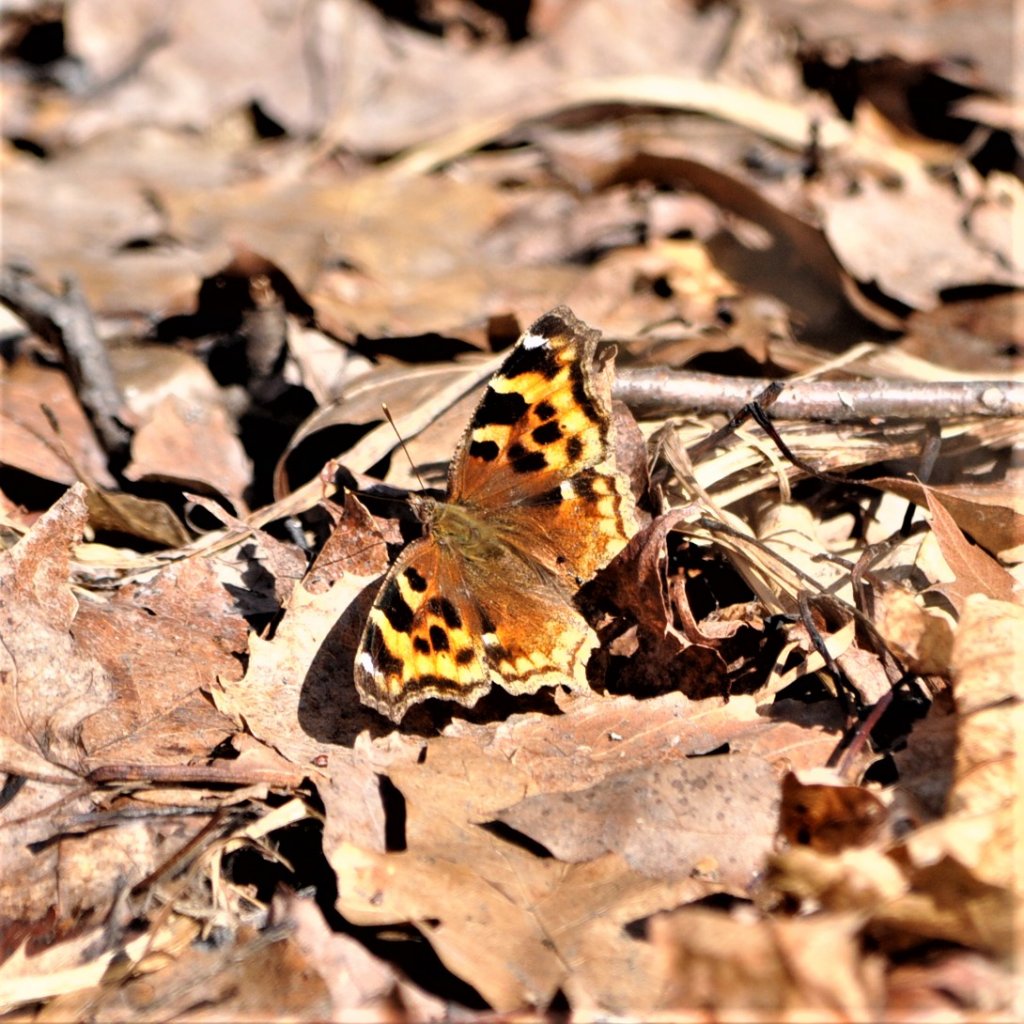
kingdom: Animalia
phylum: Arthropoda
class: Insecta
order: Lepidoptera
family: Nymphalidae
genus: Polygonia
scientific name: Polygonia vaualbum
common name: Compton Tortoiseshell
